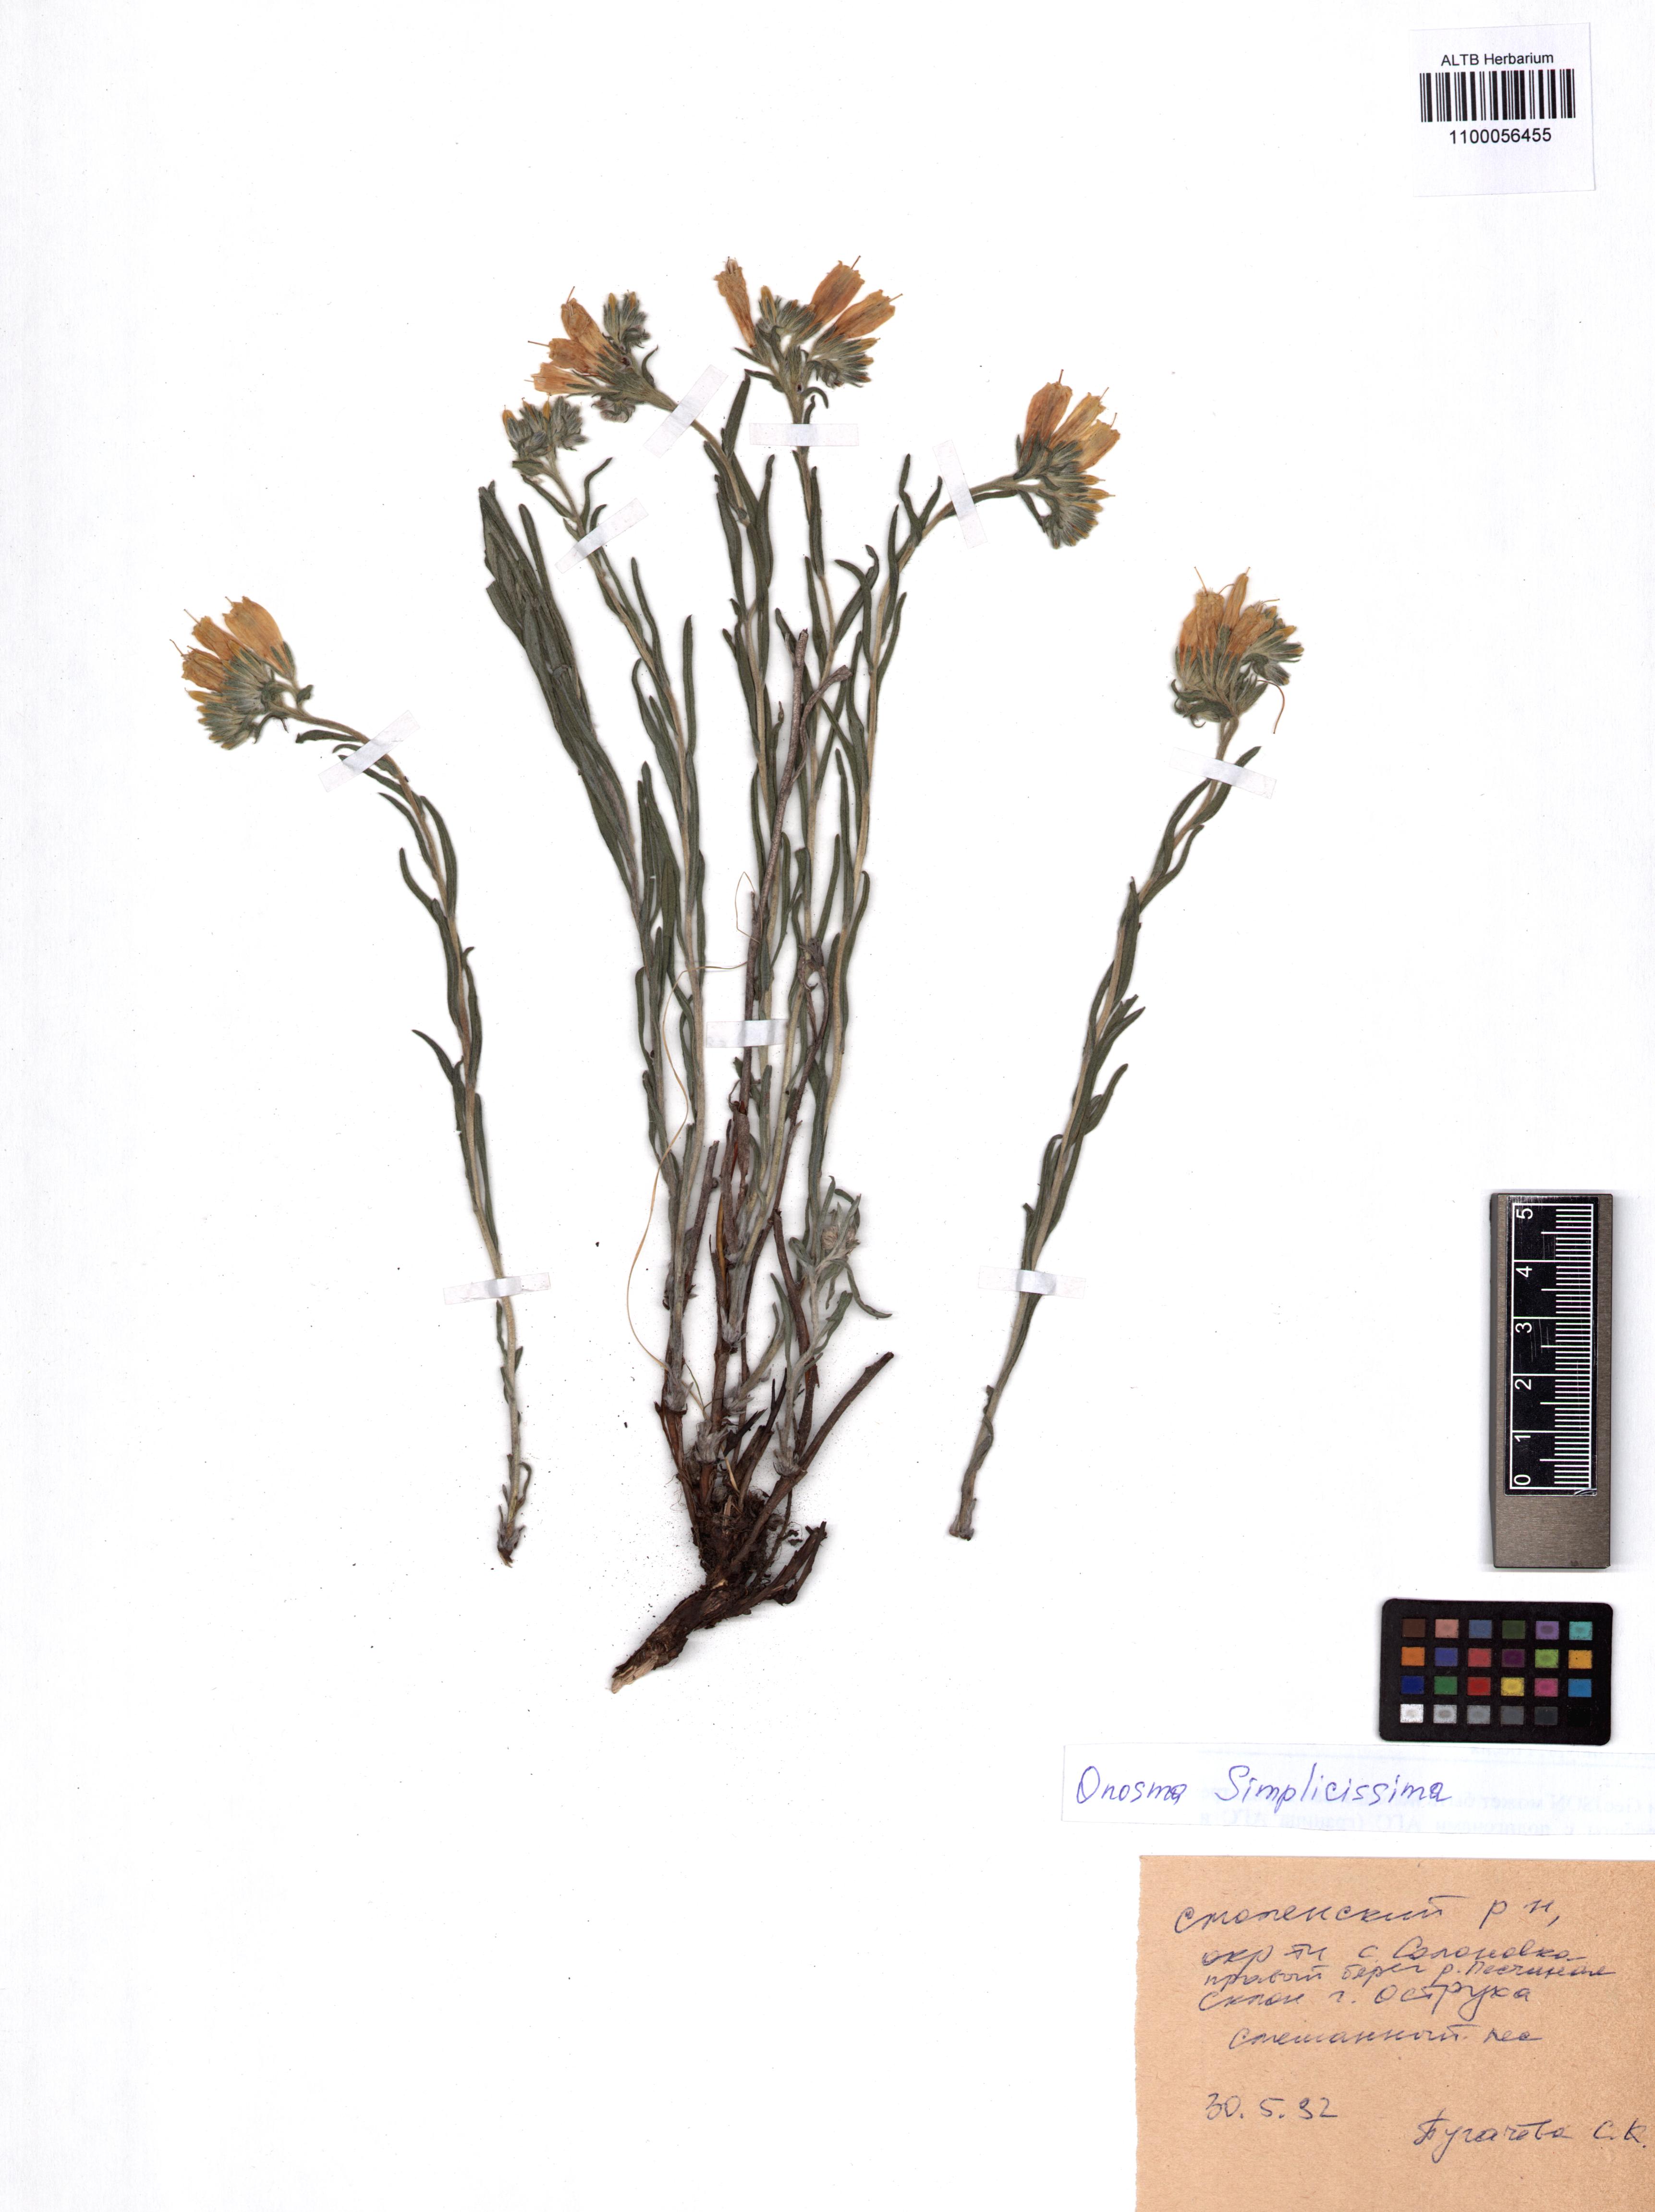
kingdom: Plantae
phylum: Tracheophyta
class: Magnoliopsida
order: Boraginales
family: Boraginaceae
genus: Onosma
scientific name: Onosma simplicissima
